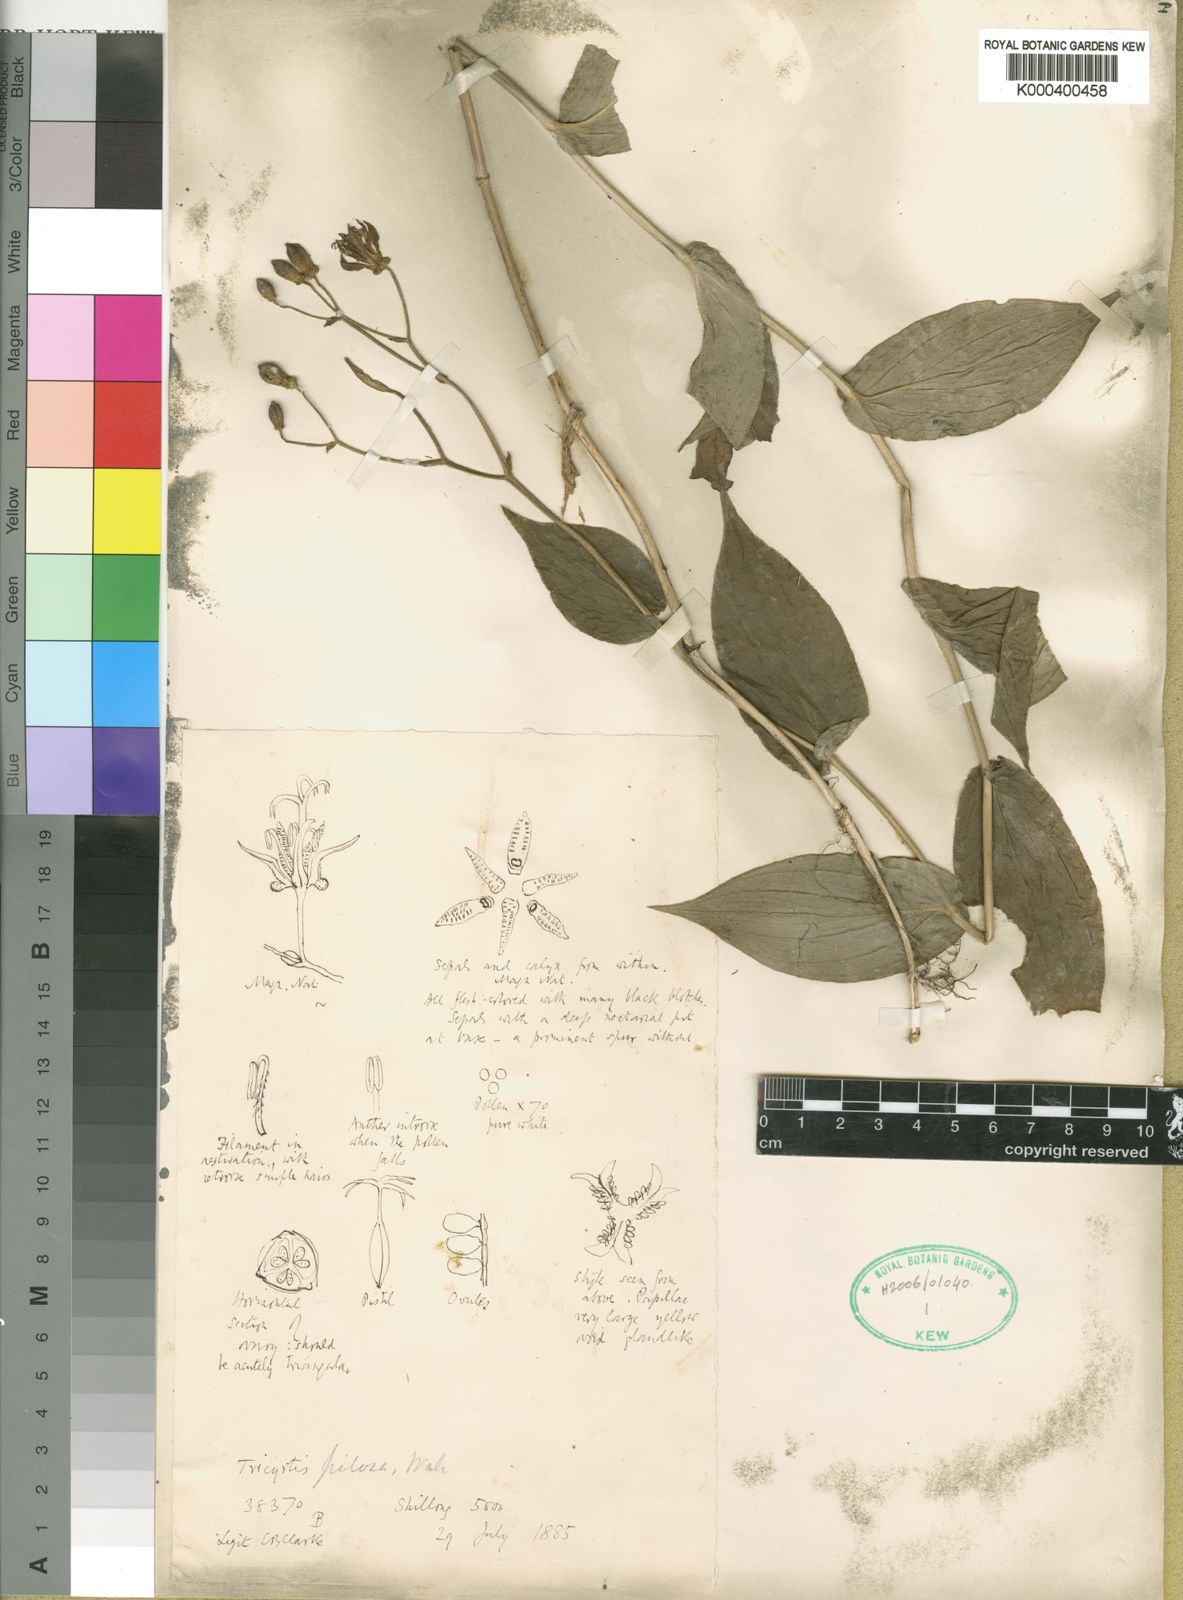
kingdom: Plantae
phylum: Tracheophyta
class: Liliopsida
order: Liliales
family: Liliaceae
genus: Tricyrtis
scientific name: Tricyrtis maculata
